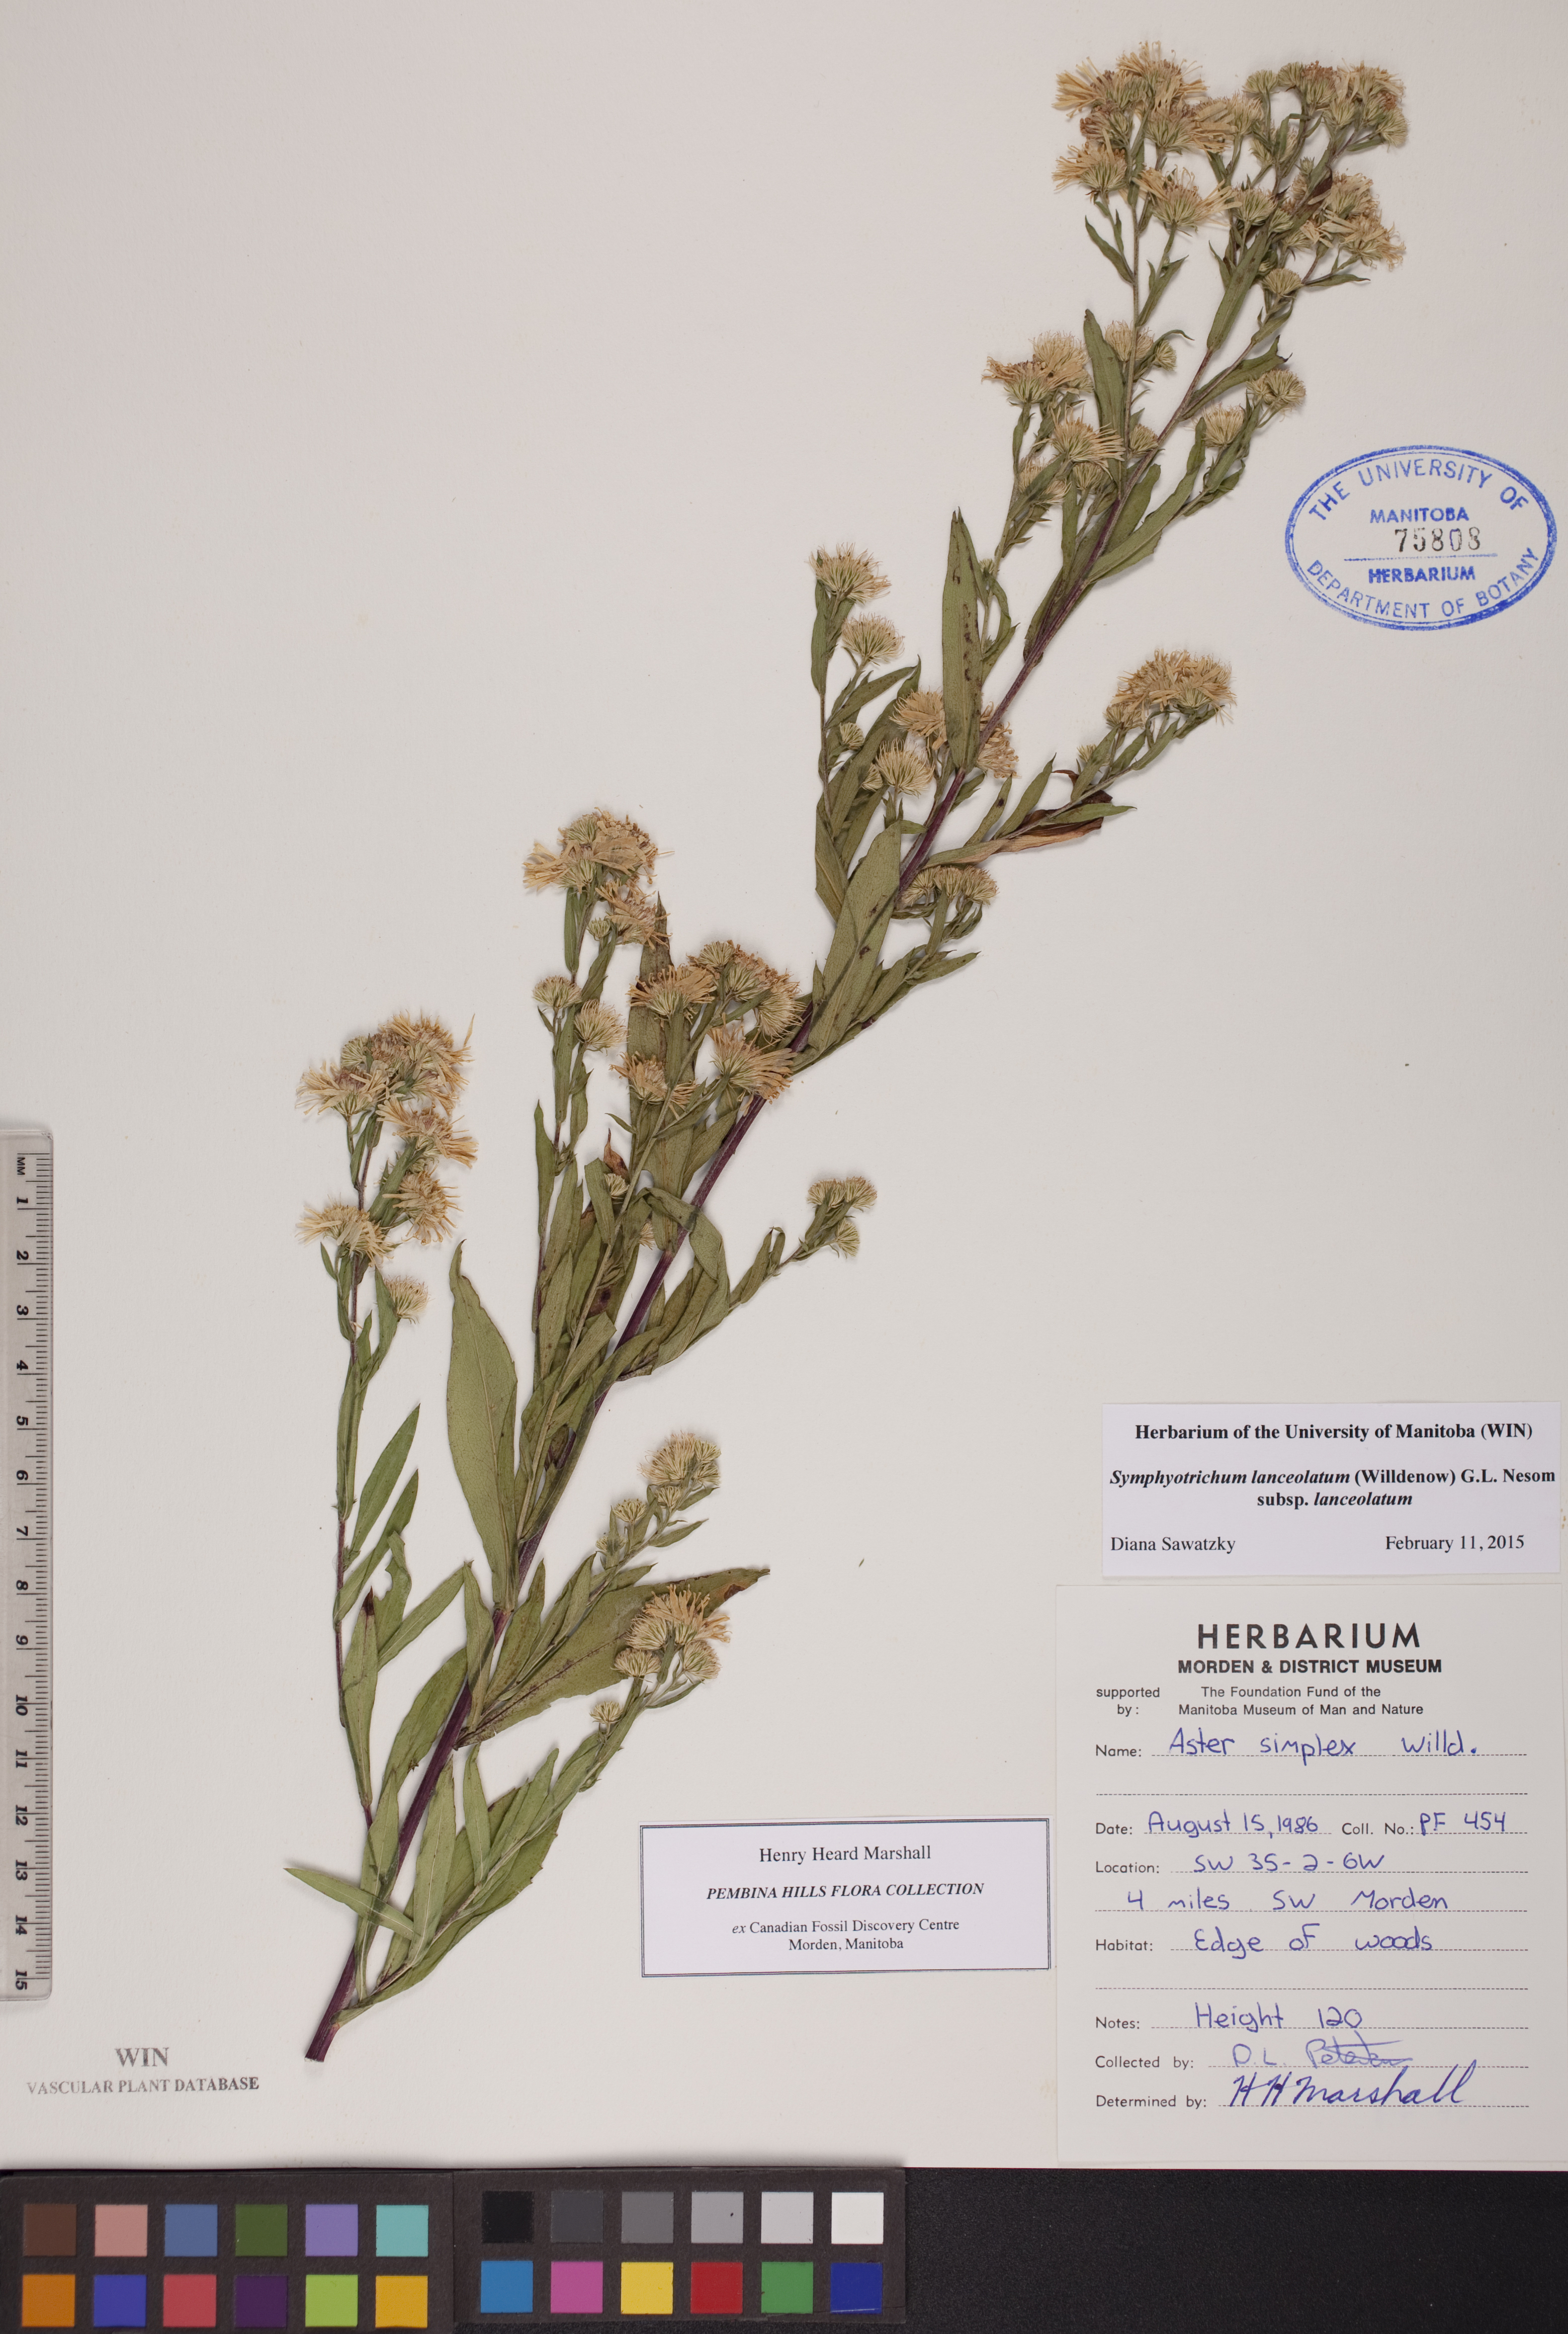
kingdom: Plantae
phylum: Tracheophyta
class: Magnoliopsida
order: Asterales
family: Asteraceae
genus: Symphyotrichum
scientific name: Symphyotrichum lanceolatum
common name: Panicled aster
